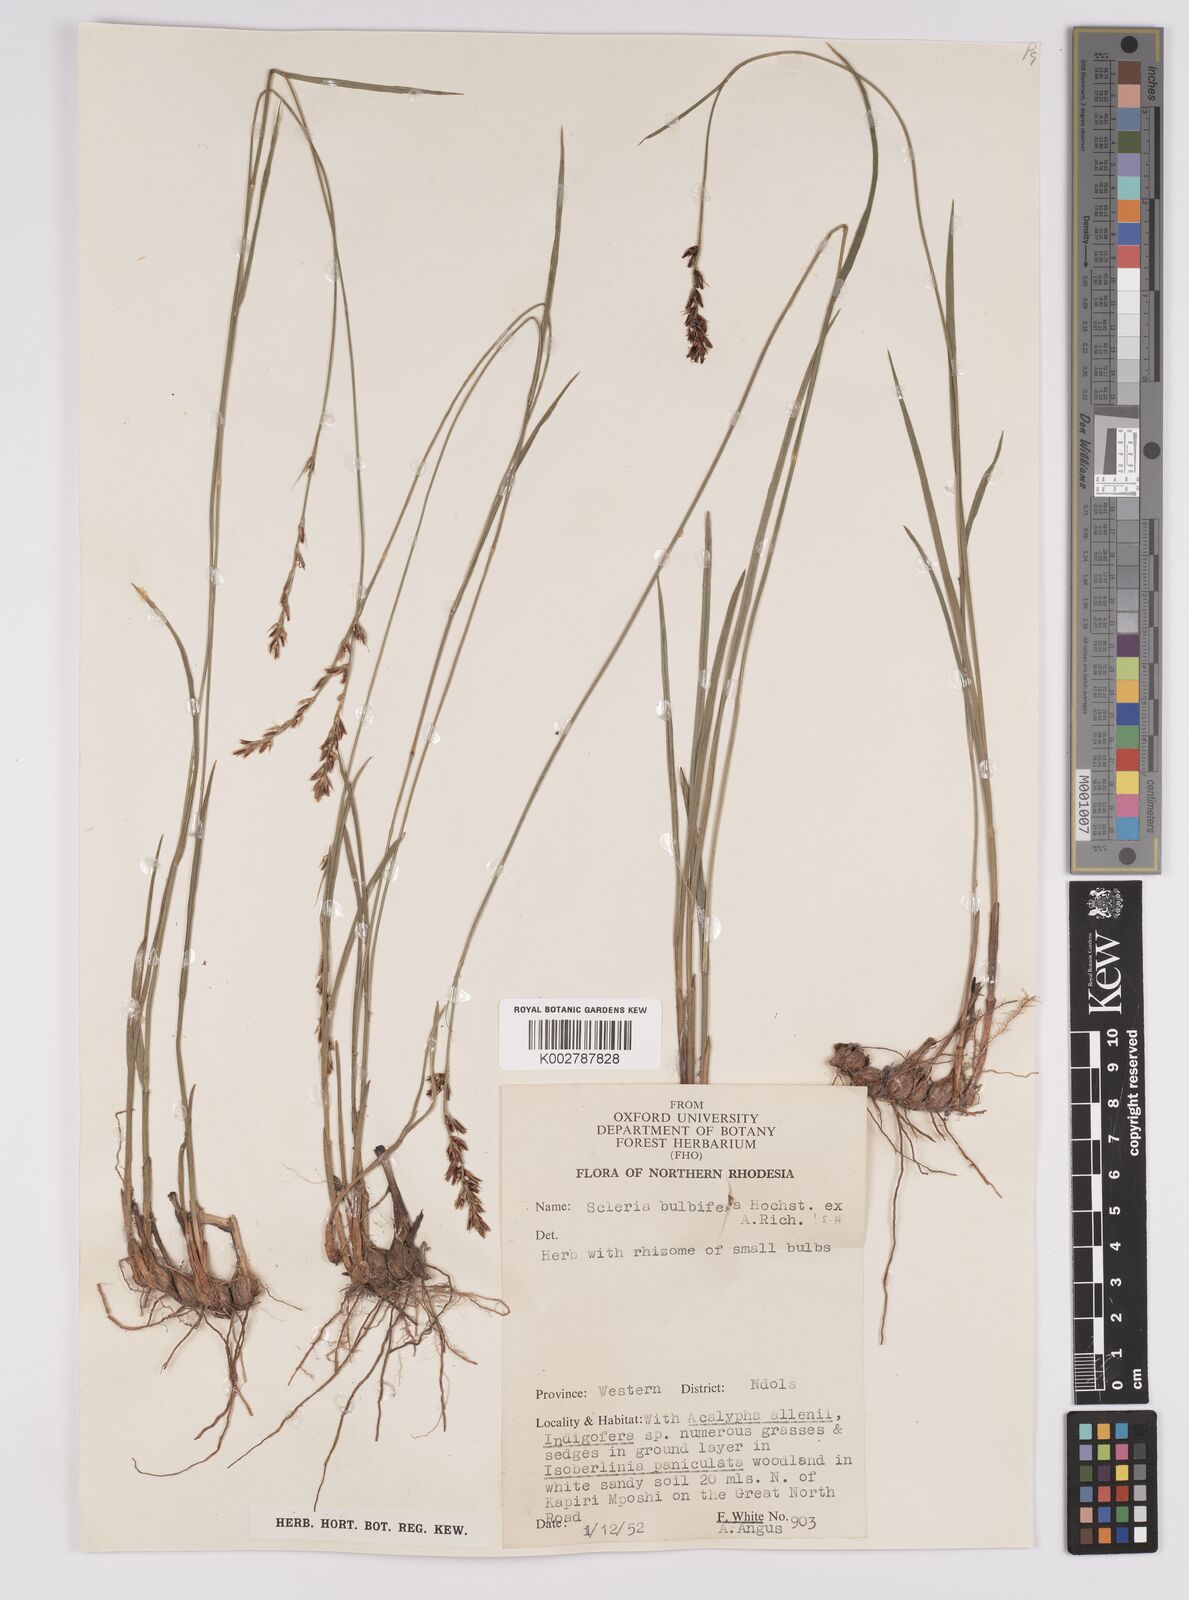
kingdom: Plantae
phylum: Tracheophyta
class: Liliopsida
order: Poales
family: Cyperaceae
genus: Scleria
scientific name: Scleria bulbifera
